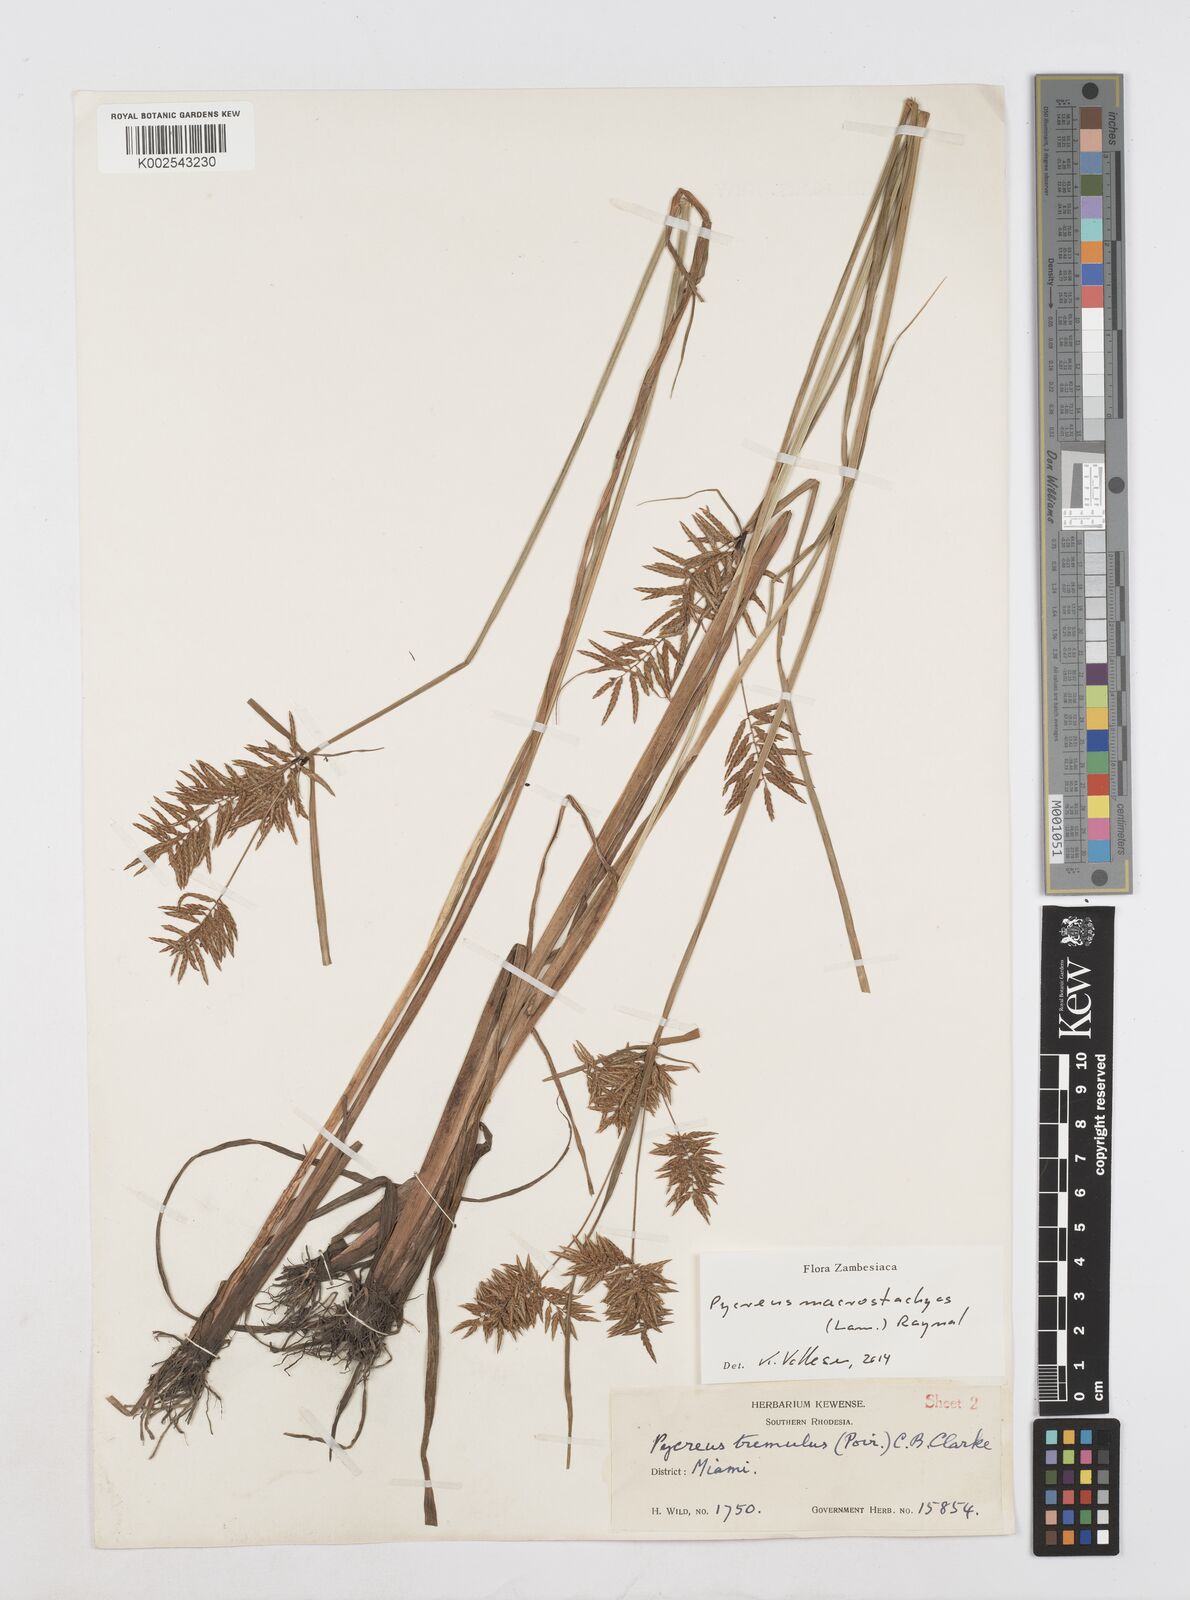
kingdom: Plantae
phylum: Tracheophyta
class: Liliopsida
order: Poales
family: Cyperaceae
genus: Cyperus
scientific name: Cyperus macrostachyos
